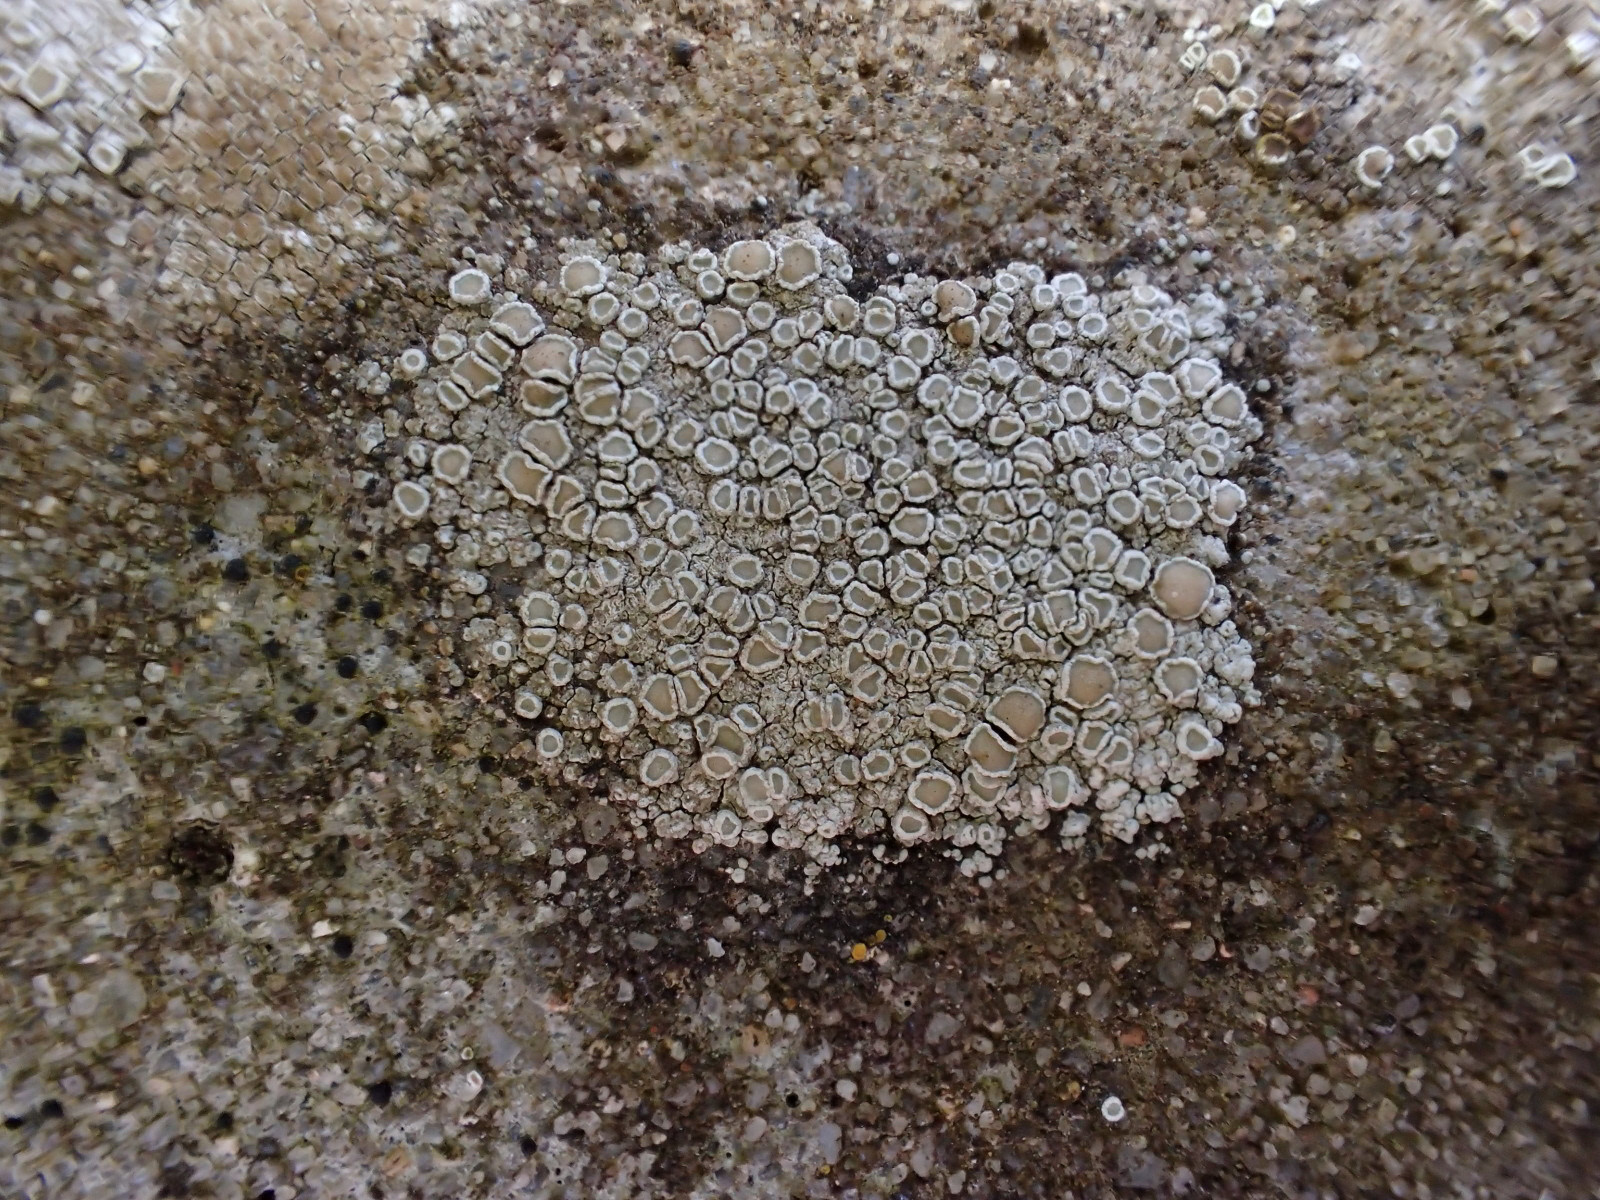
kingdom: Fungi
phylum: Ascomycota
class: Lecanoromycetes
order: Lecanorales
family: Lecanoraceae
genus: Polyozosia
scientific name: Polyozosia albescens
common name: cement-kantskivelav
